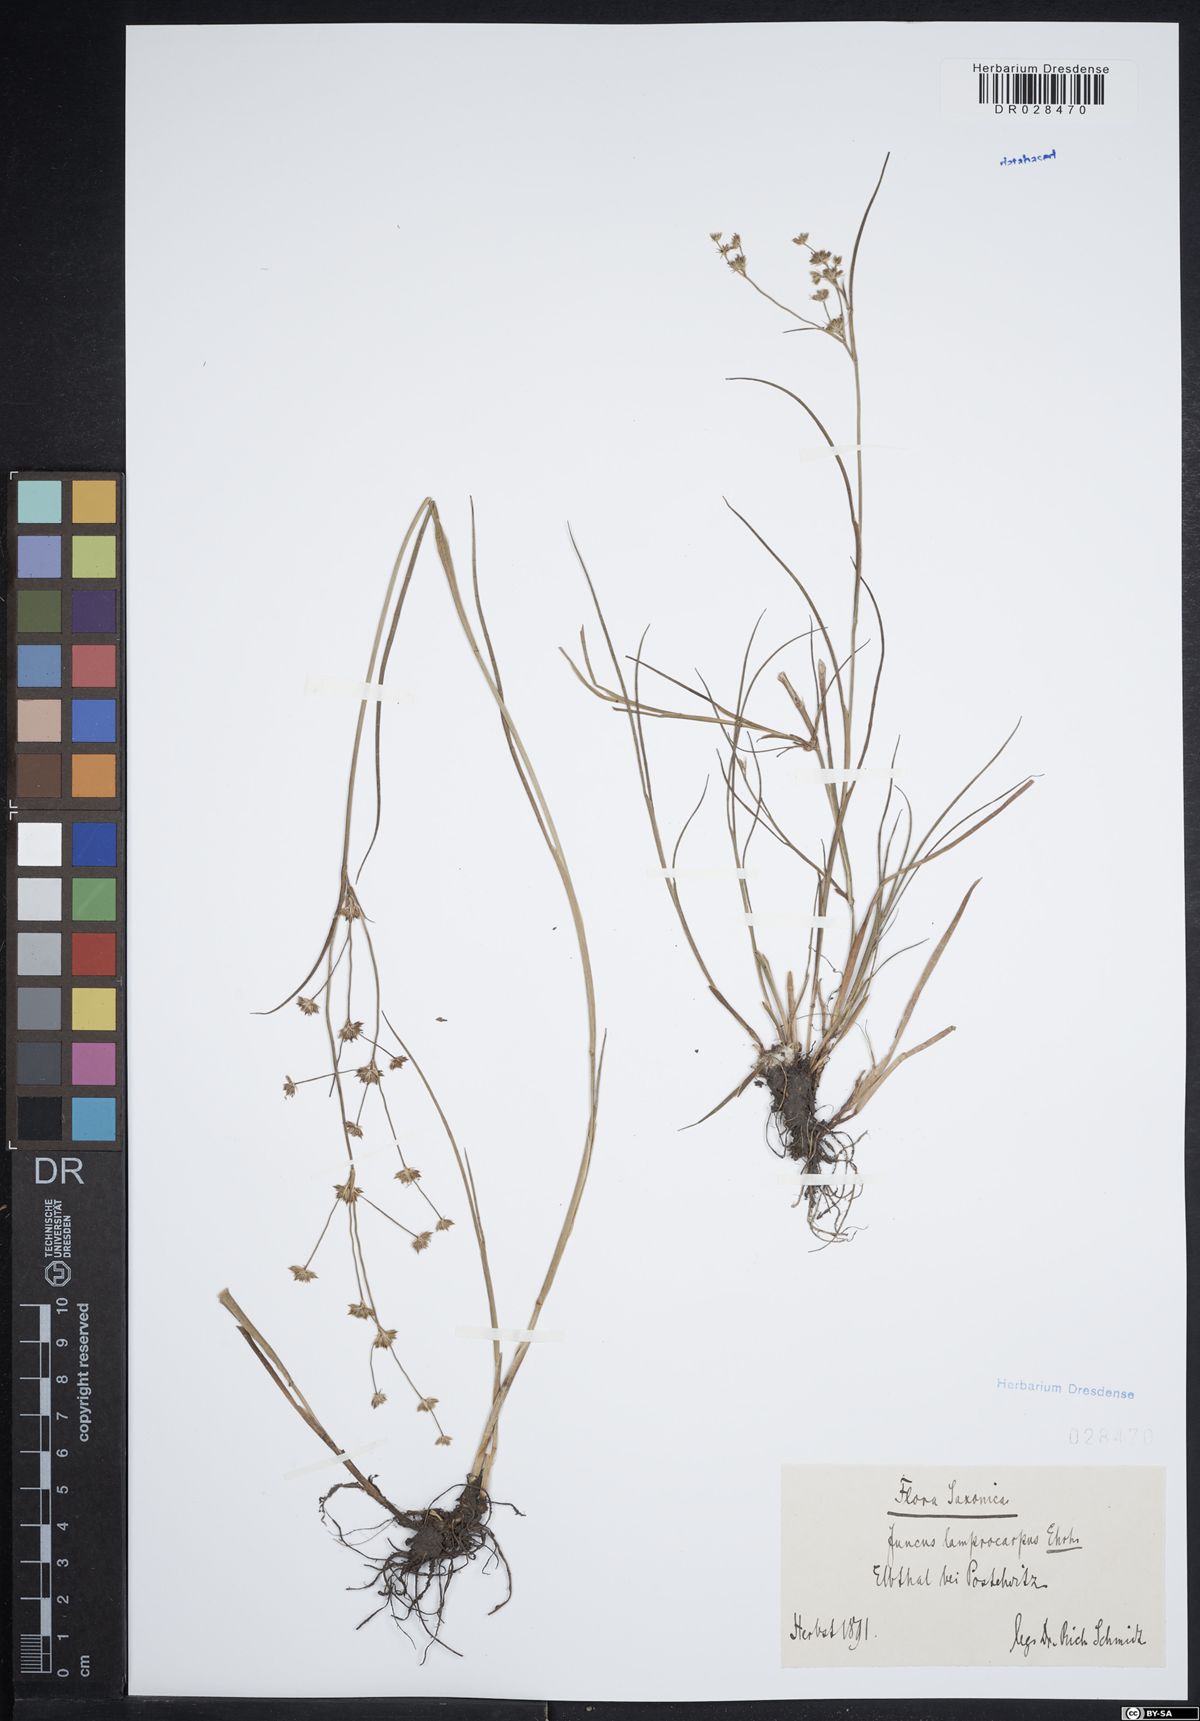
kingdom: Plantae
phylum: Tracheophyta
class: Liliopsida
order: Poales
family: Juncaceae
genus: Juncus
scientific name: Juncus articulatus
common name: Jointed rush
